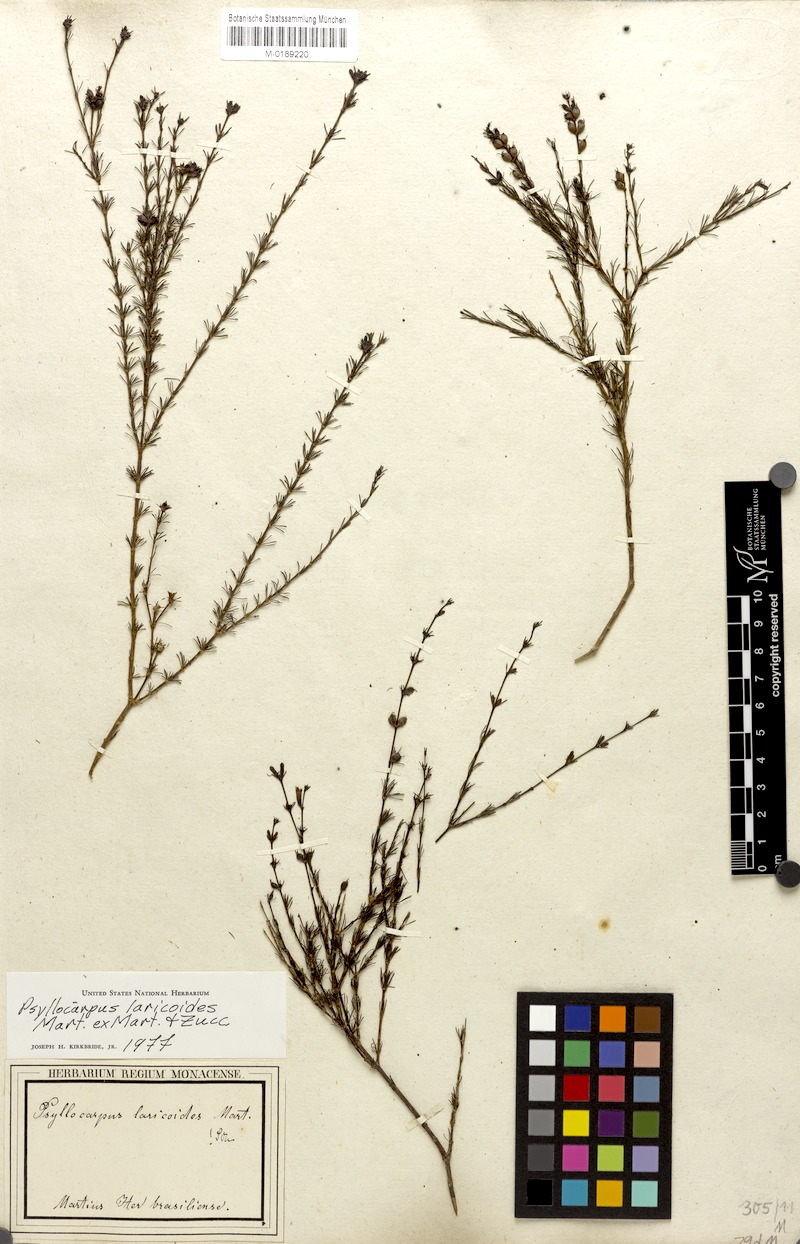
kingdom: Plantae
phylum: Tracheophyta
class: Magnoliopsida
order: Gentianales
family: Rubiaceae
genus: Psyllocarpus
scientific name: Psyllocarpus laricoides
